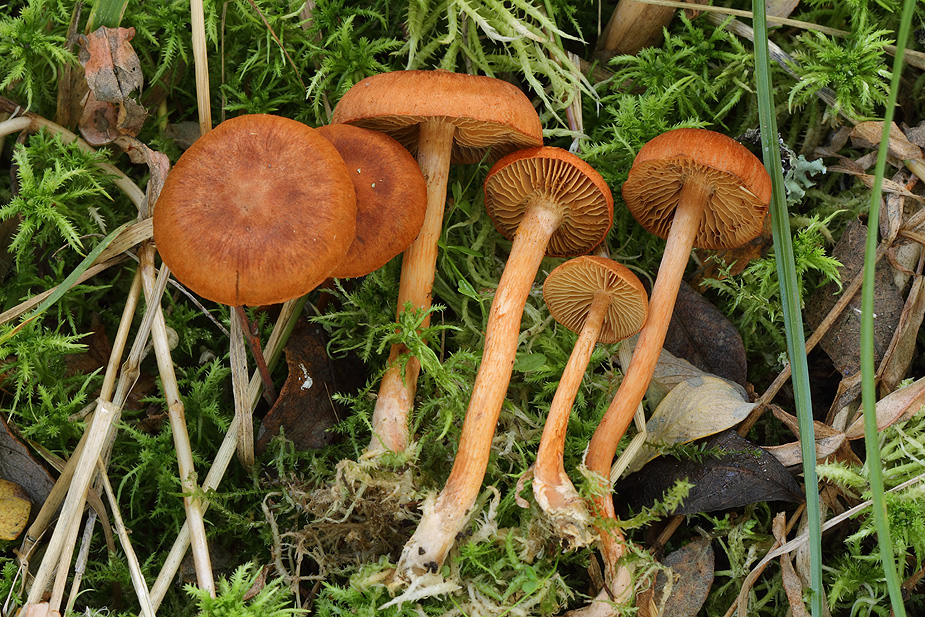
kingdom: Fungi
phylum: Basidiomycota
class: Agaricomycetes
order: Agaricales
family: Cortinariaceae
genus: Cortinarius
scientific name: Cortinarius uliginosus
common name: mose-slørhat
